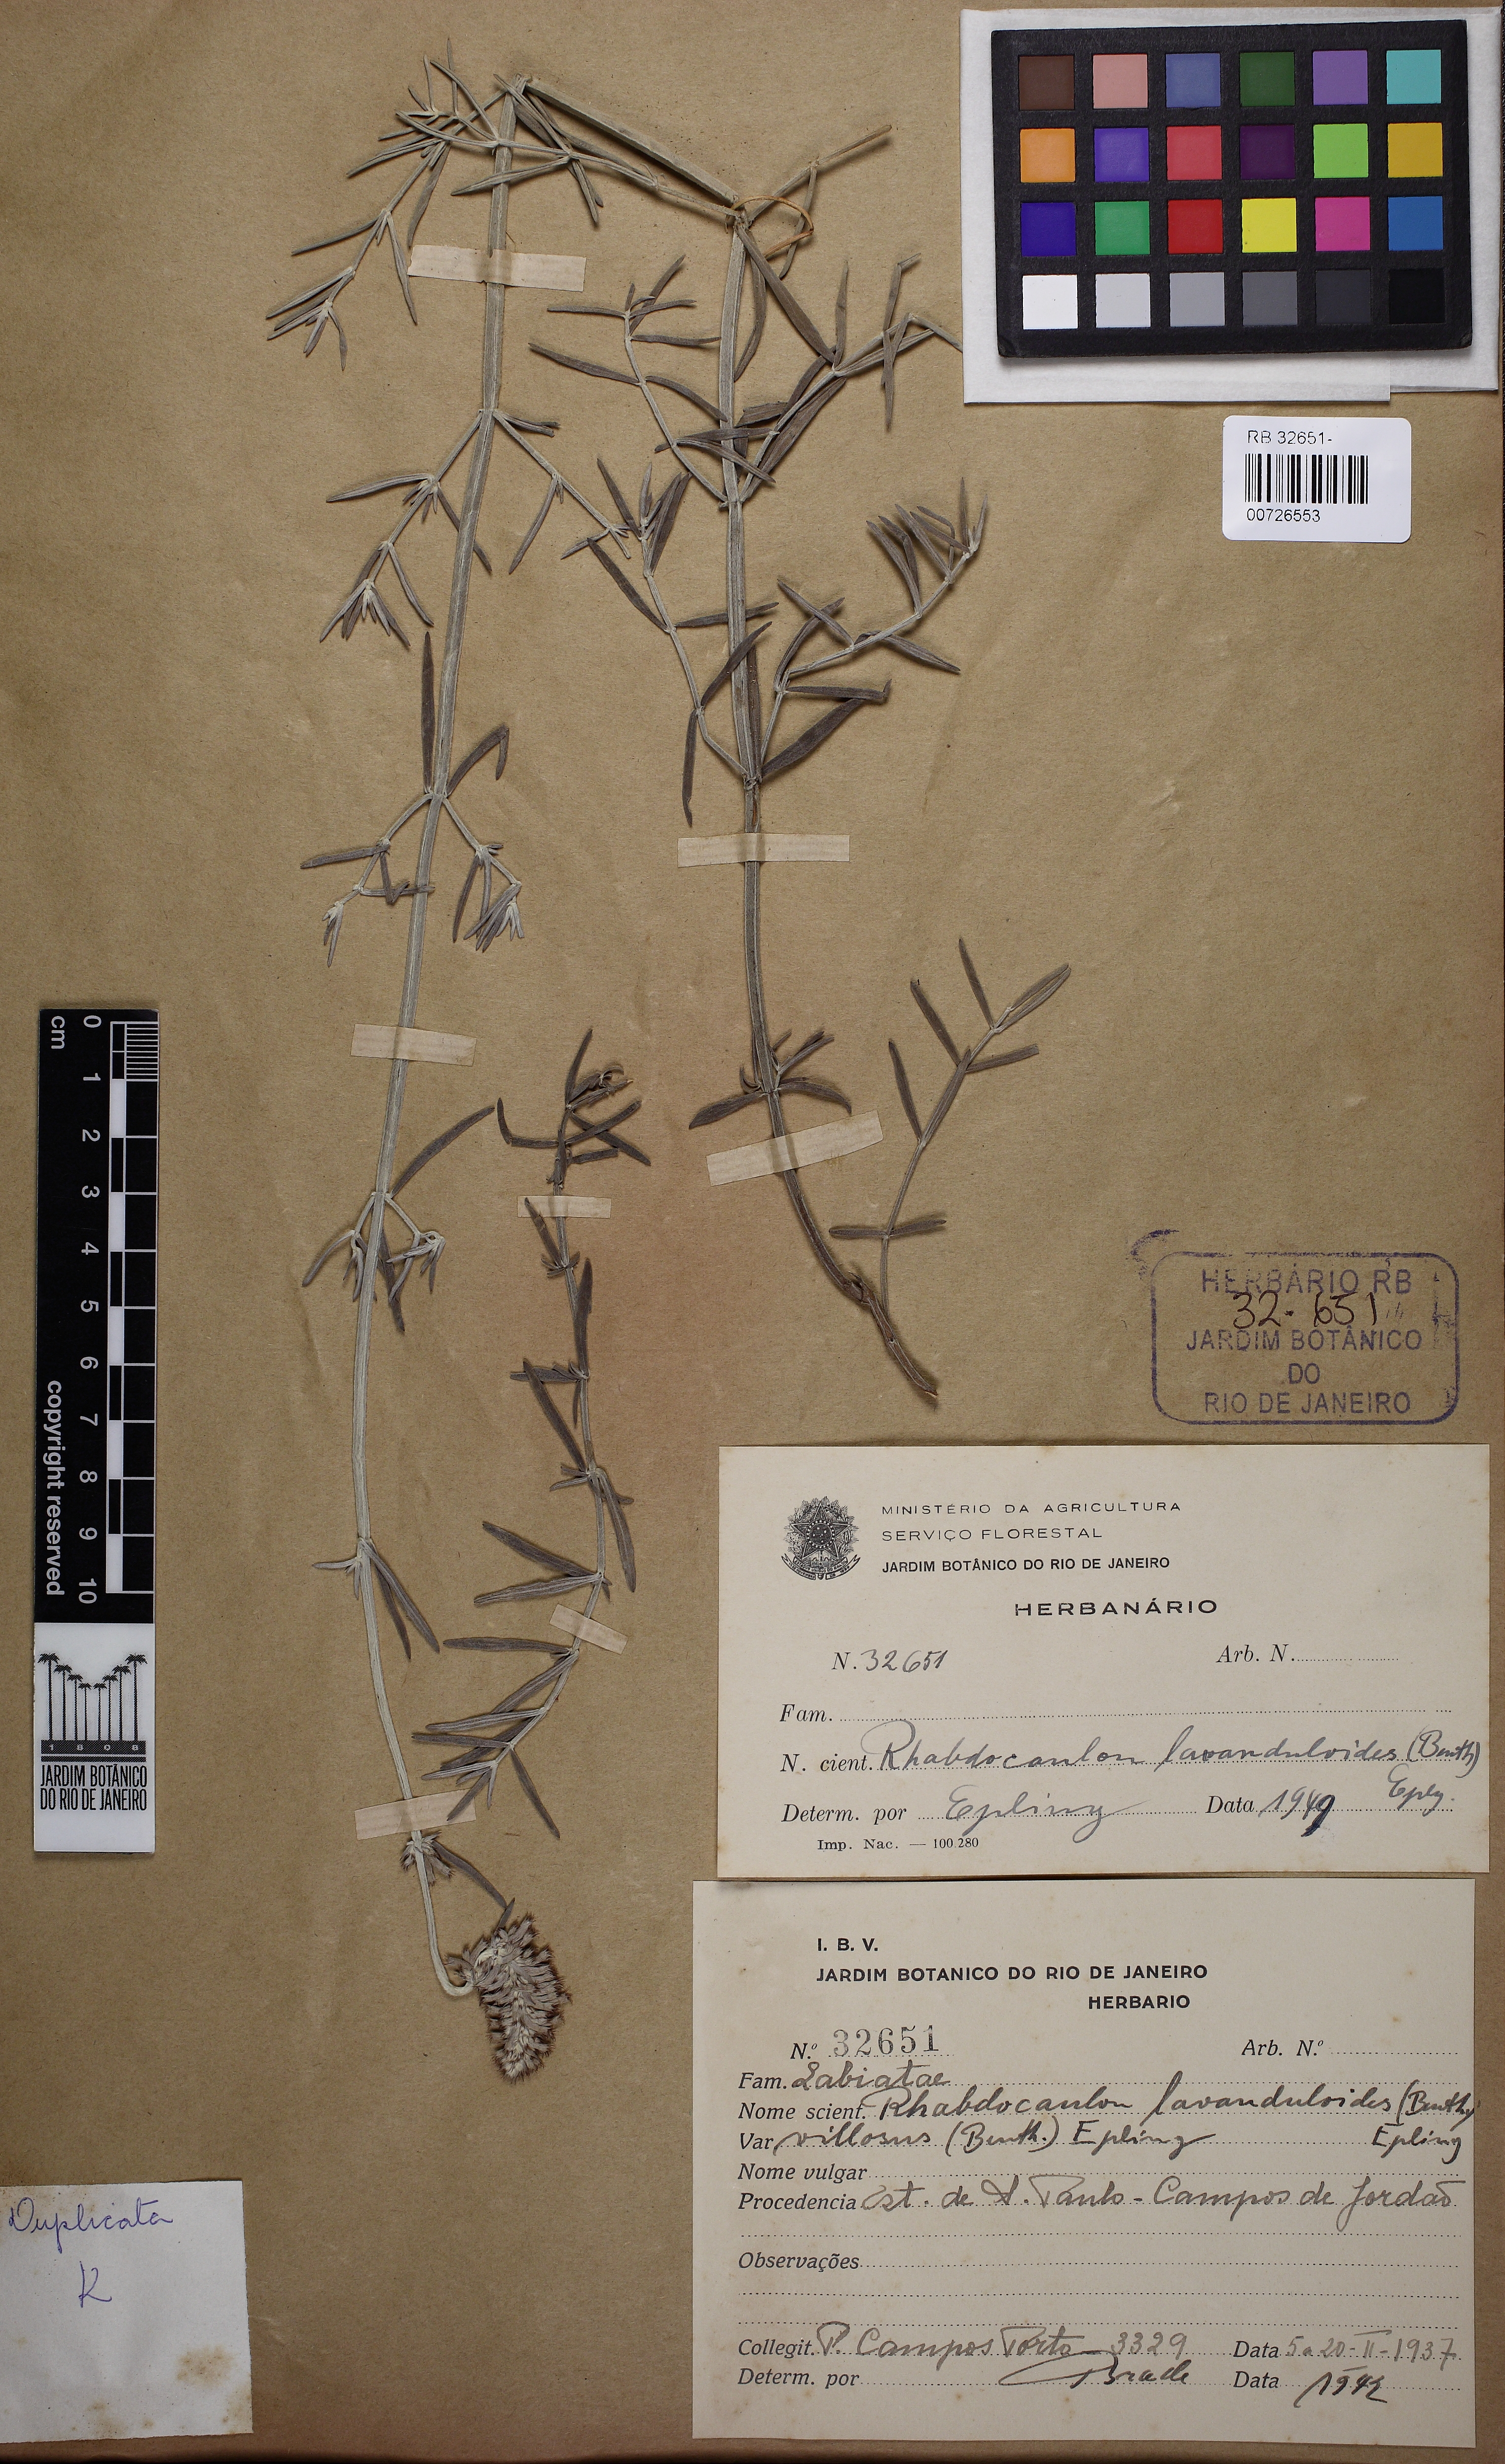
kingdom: Plantae
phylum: Tracheophyta
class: Magnoliopsida
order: Lamiales
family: Lamiaceae
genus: Rhabdocaulon
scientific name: Rhabdocaulon lavanduloides
